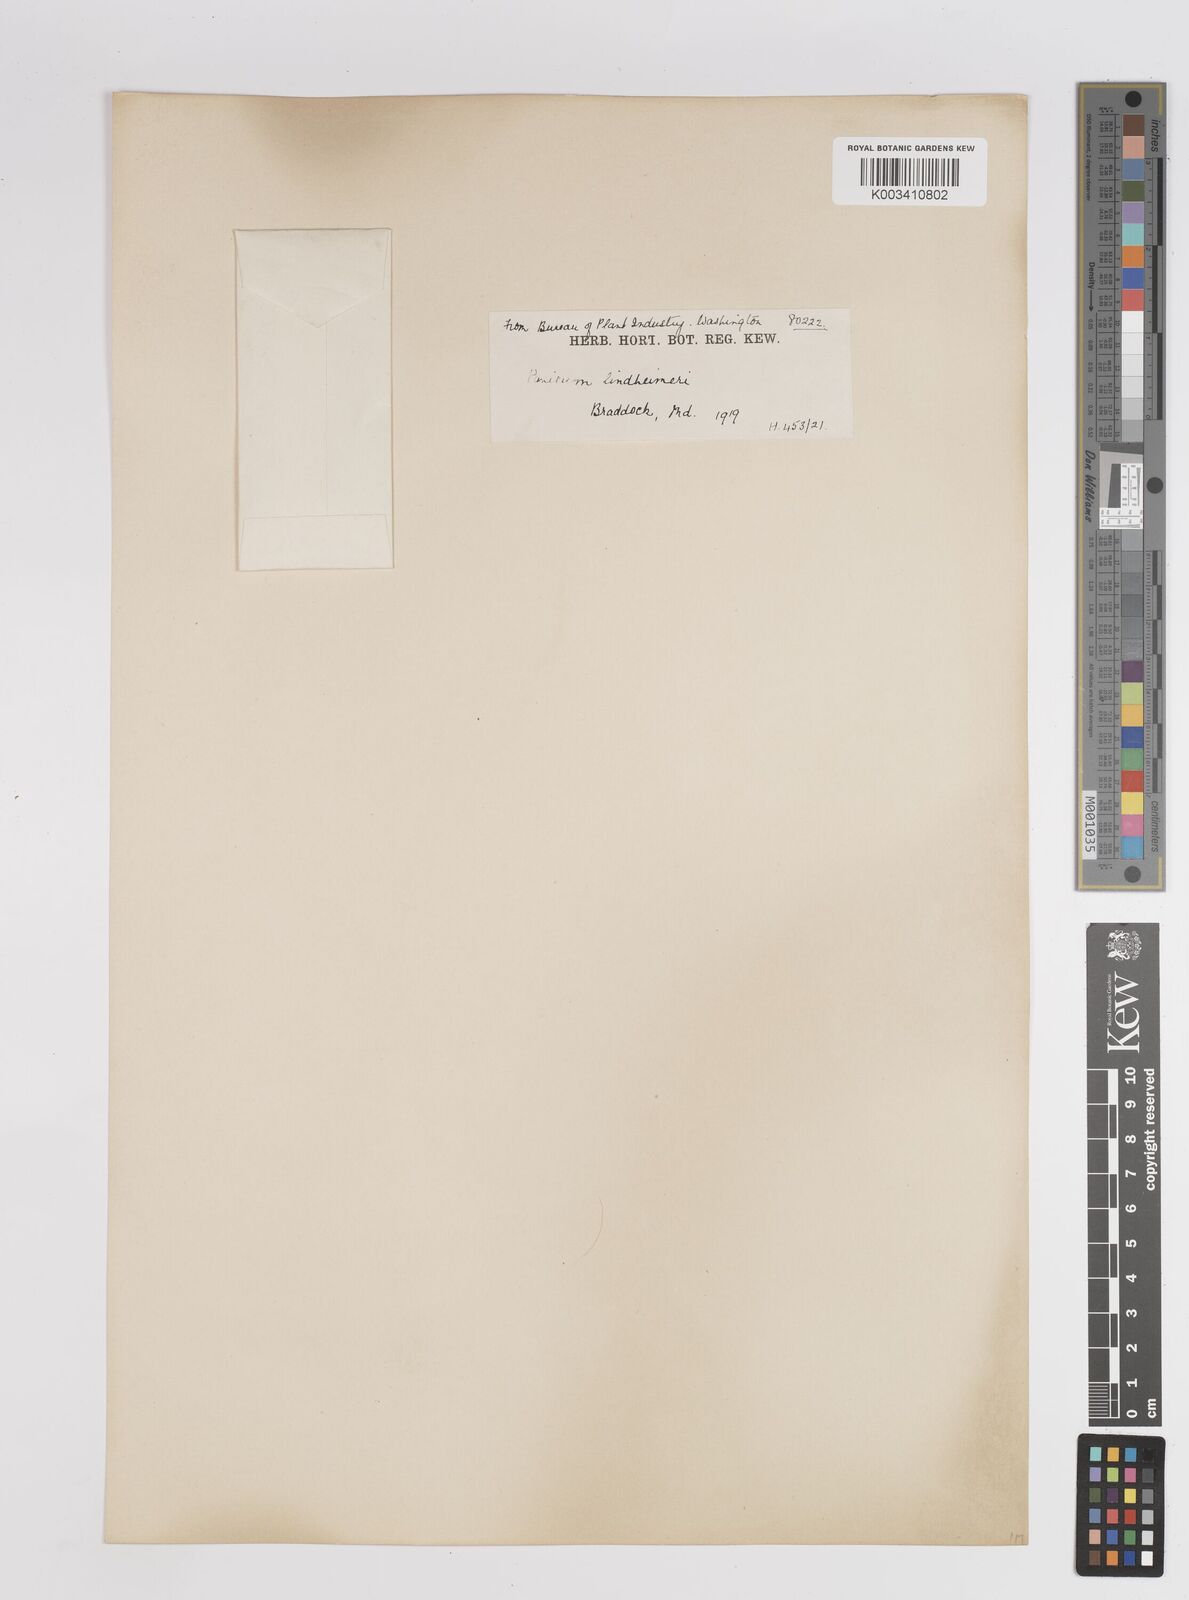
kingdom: Plantae
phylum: Tracheophyta
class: Liliopsida
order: Poales
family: Poaceae
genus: Dichanthelium
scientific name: Dichanthelium acuminatum
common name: Hairy panic grass
